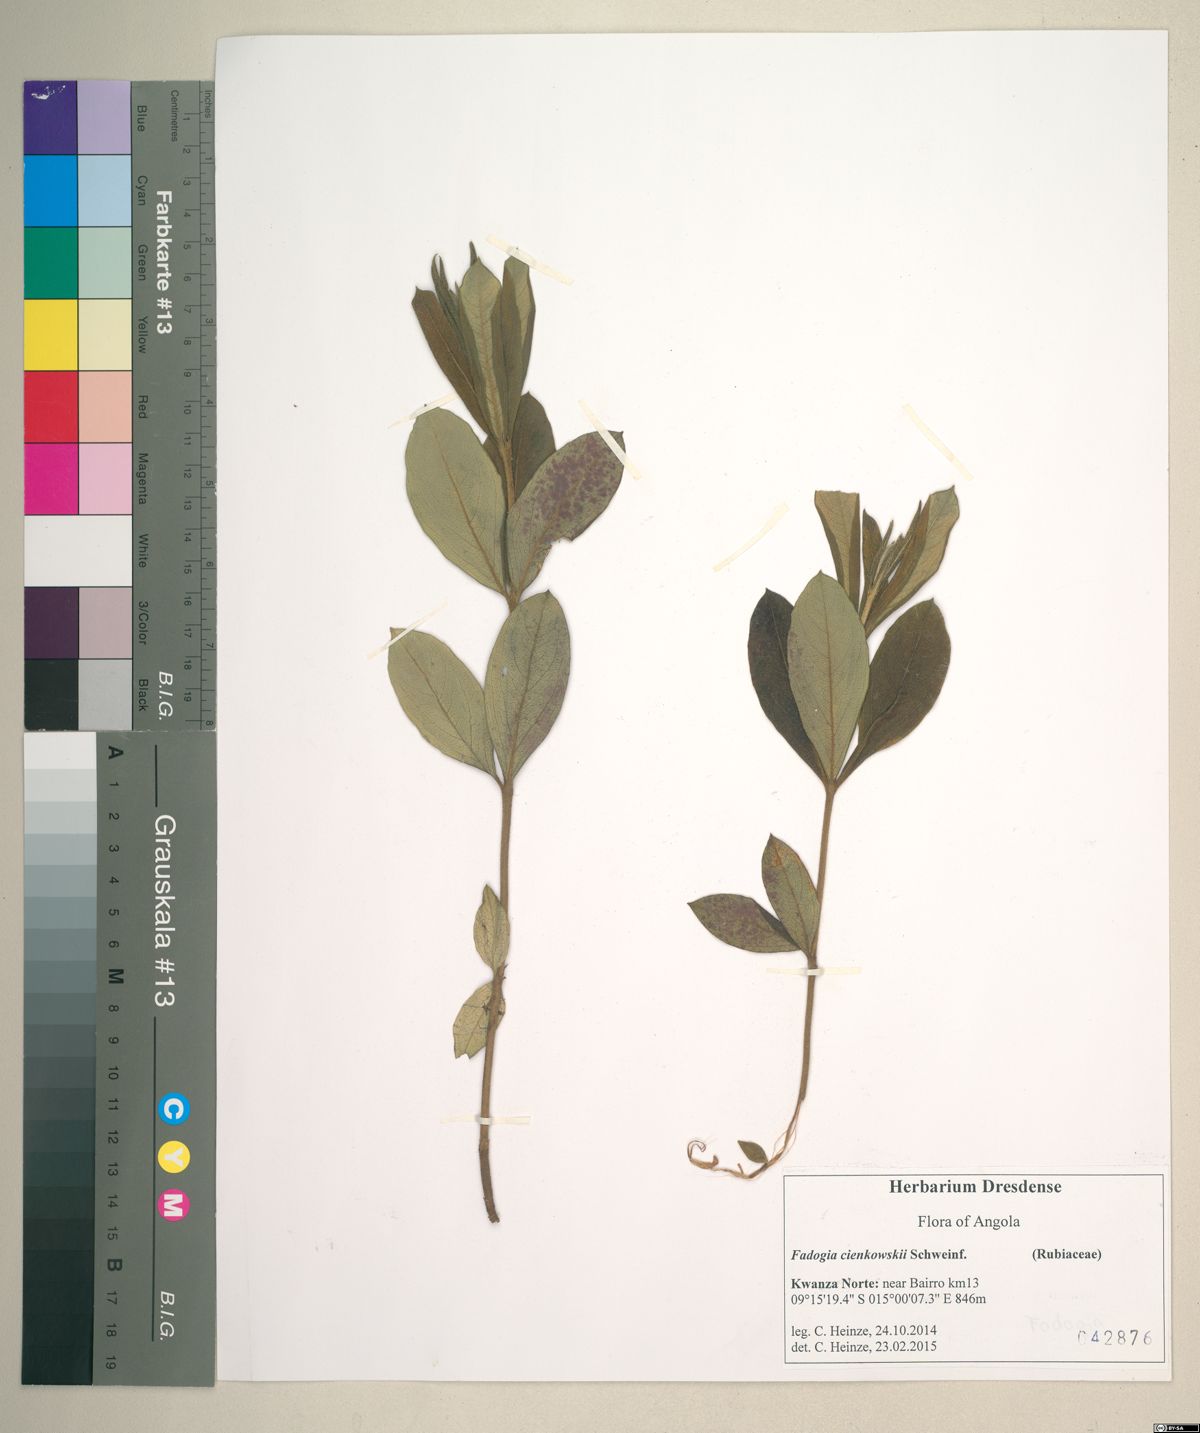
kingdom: Plantae
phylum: Tracheophyta
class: Magnoliopsida
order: Gentianales
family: Rubiaceae
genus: Fadogia
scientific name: Fadogia cienkowskii
